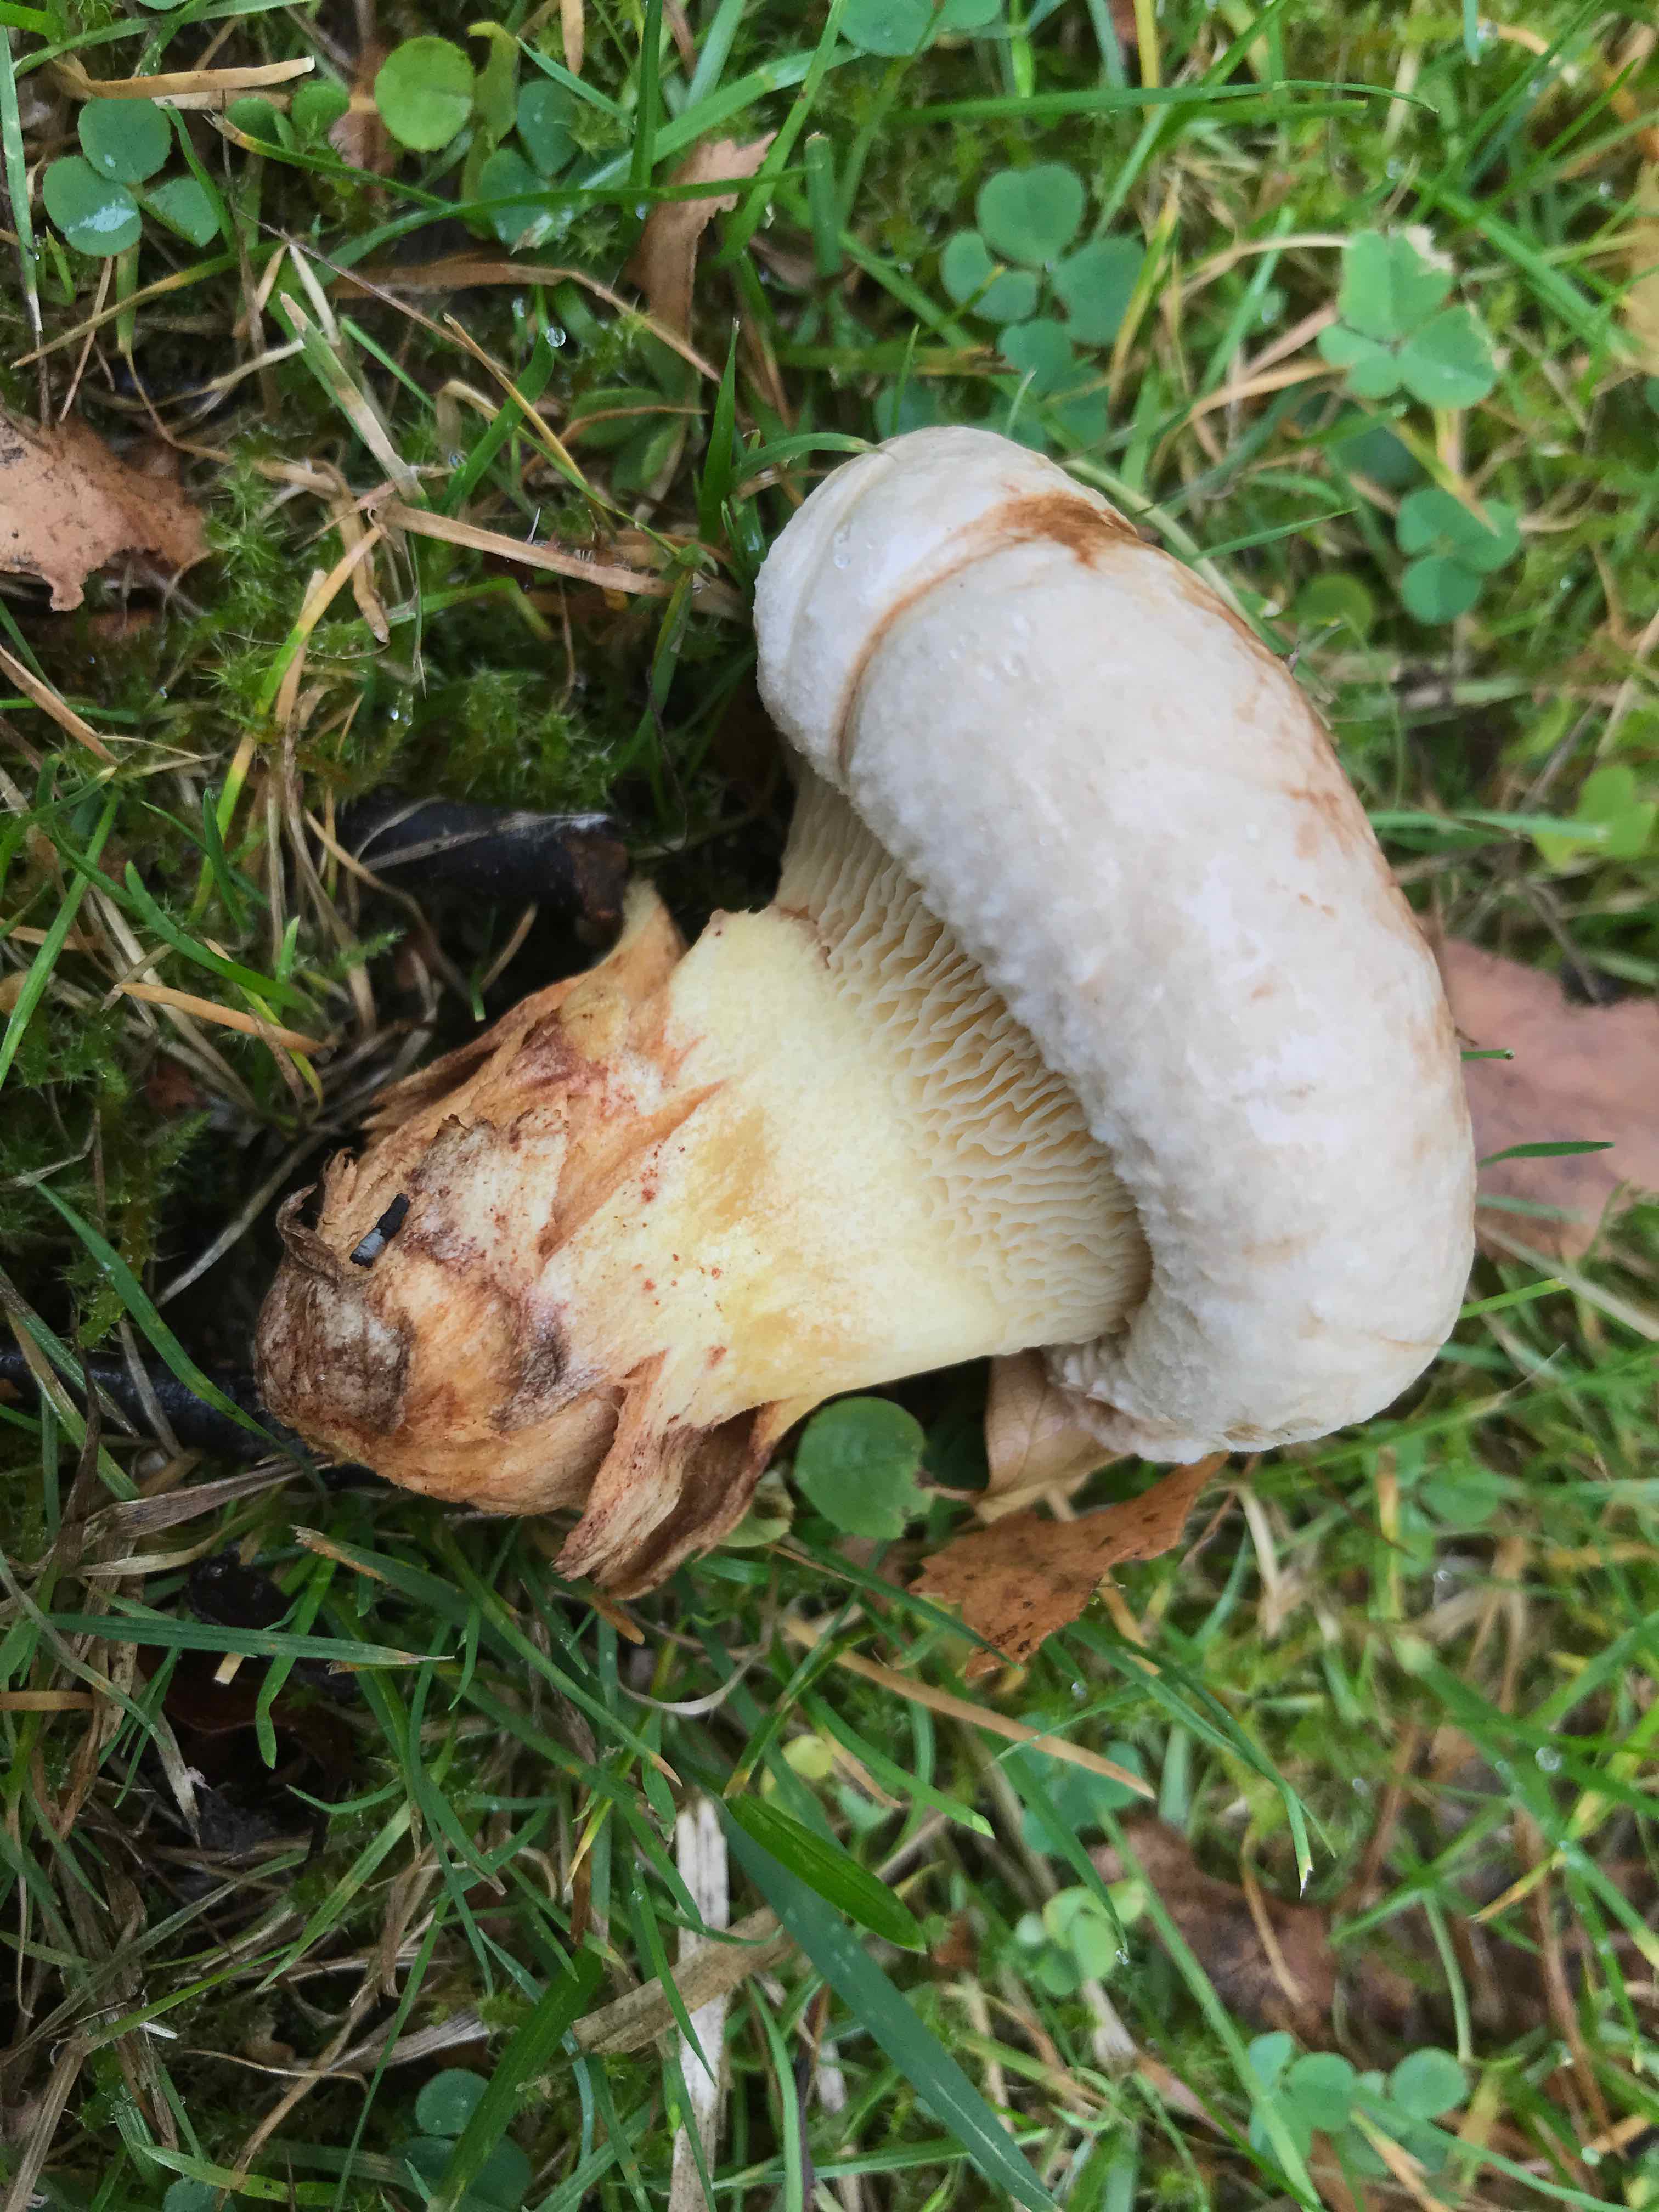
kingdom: Fungi
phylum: Basidiomycota
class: Agaricomycetes
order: Boletales
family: Paxillaceae
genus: Paxillus
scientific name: Paxillus
